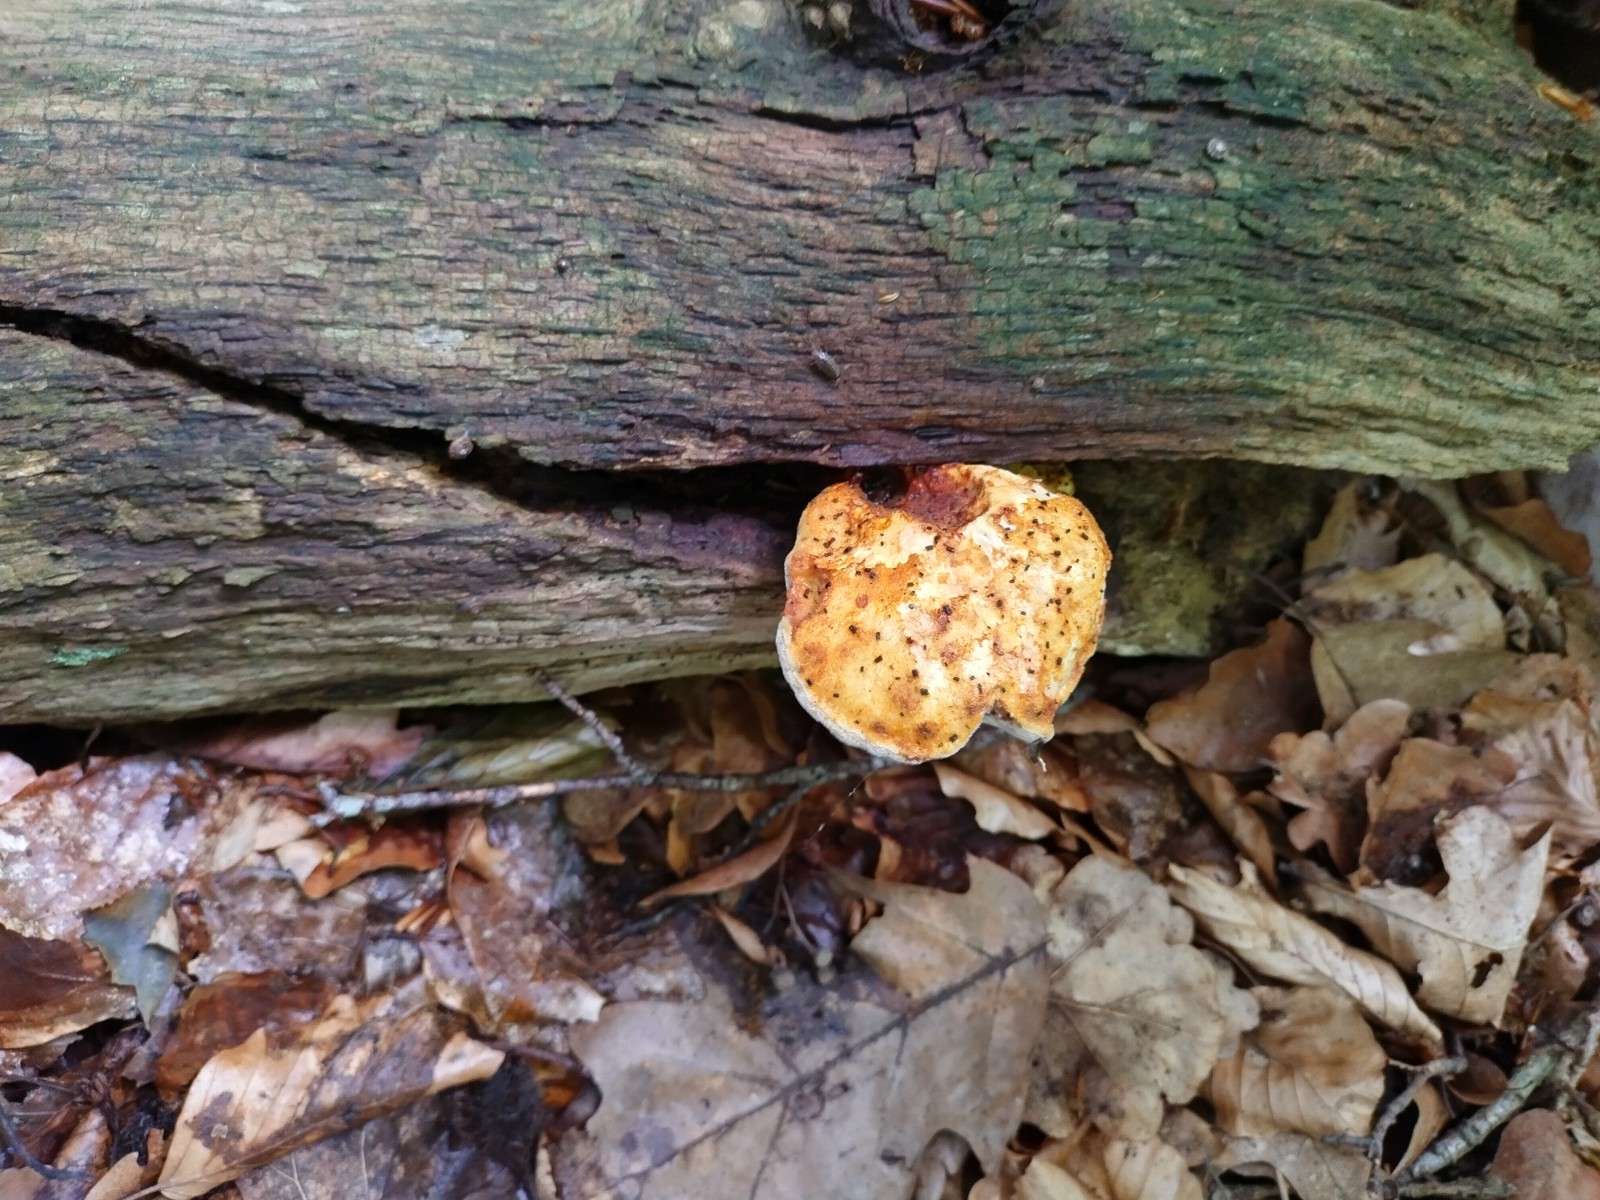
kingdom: Fungi
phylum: Basidiomycota
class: Agaricomycetes
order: Polyporales
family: Fomitopsidaceae
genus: Buglossoporus
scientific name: Buglossoporus quercinus
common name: egetunge
